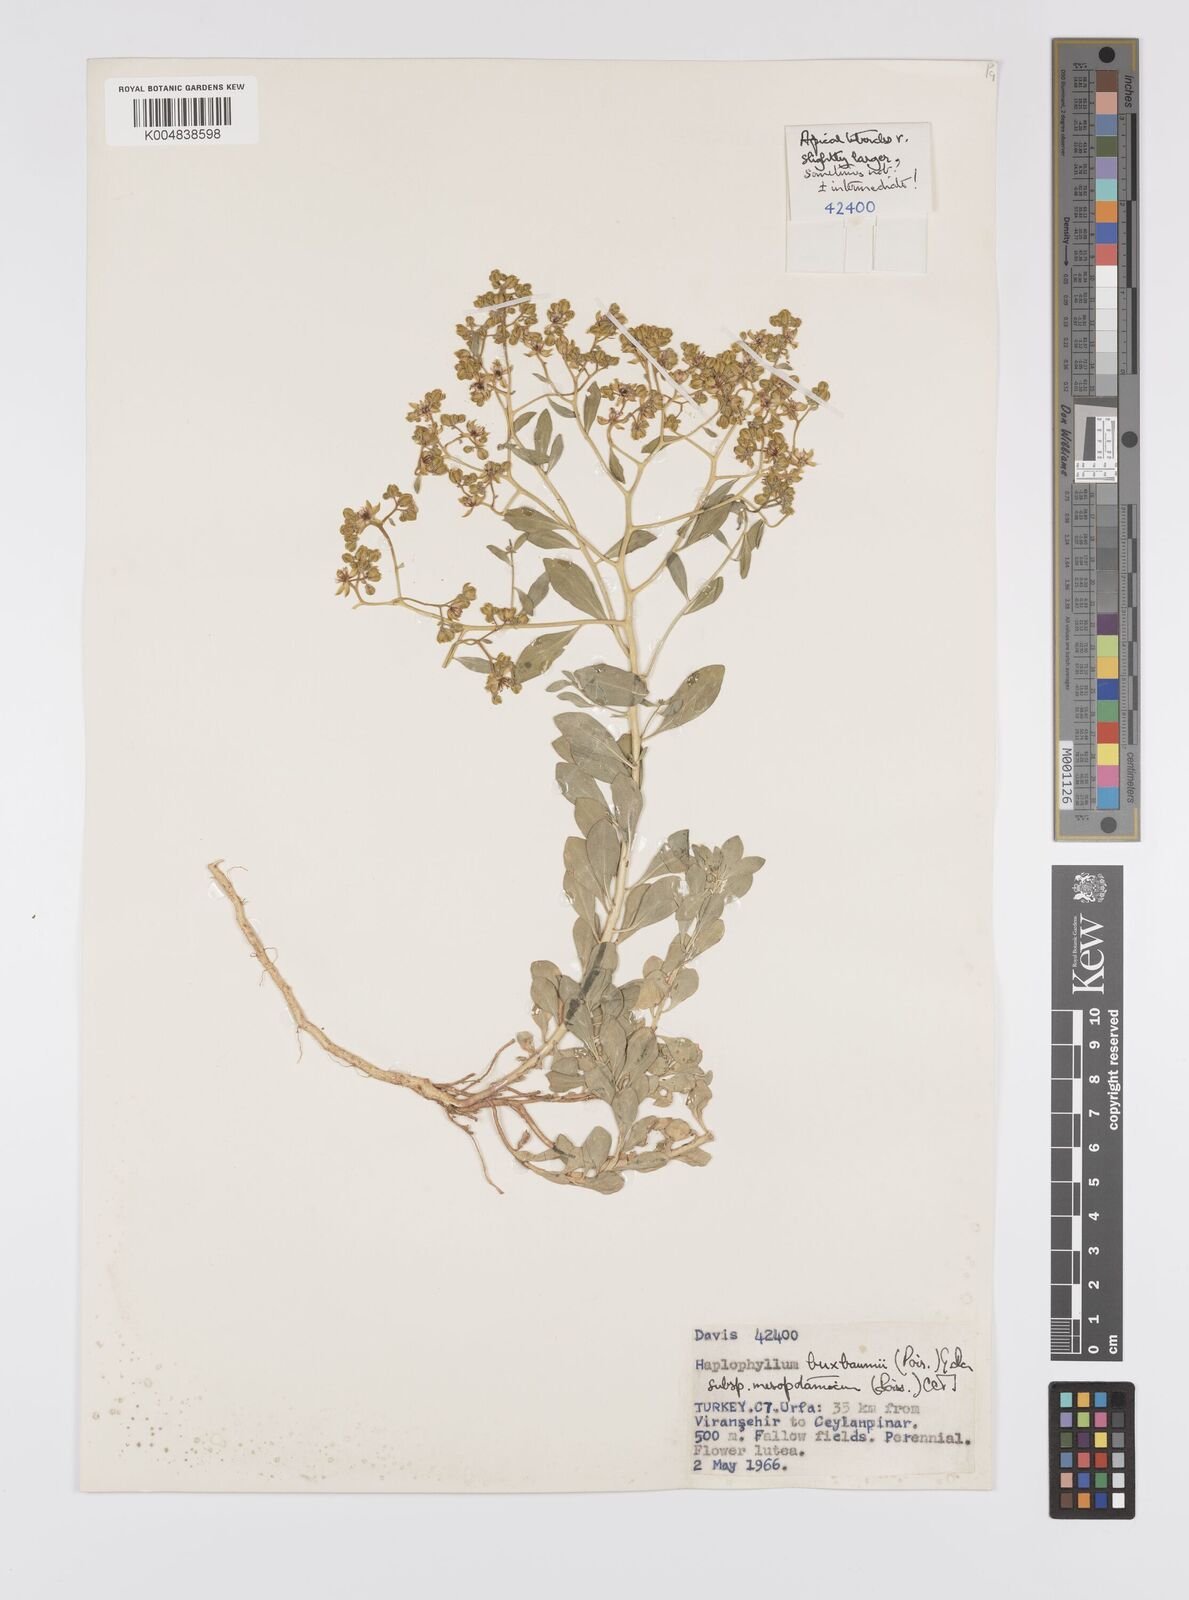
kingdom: Plantae
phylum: Tracheophyta
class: Magnoliopsida
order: Sapindales
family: Rutaceae
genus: Haplophyllum
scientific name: Haplophyllum buxbaumii
